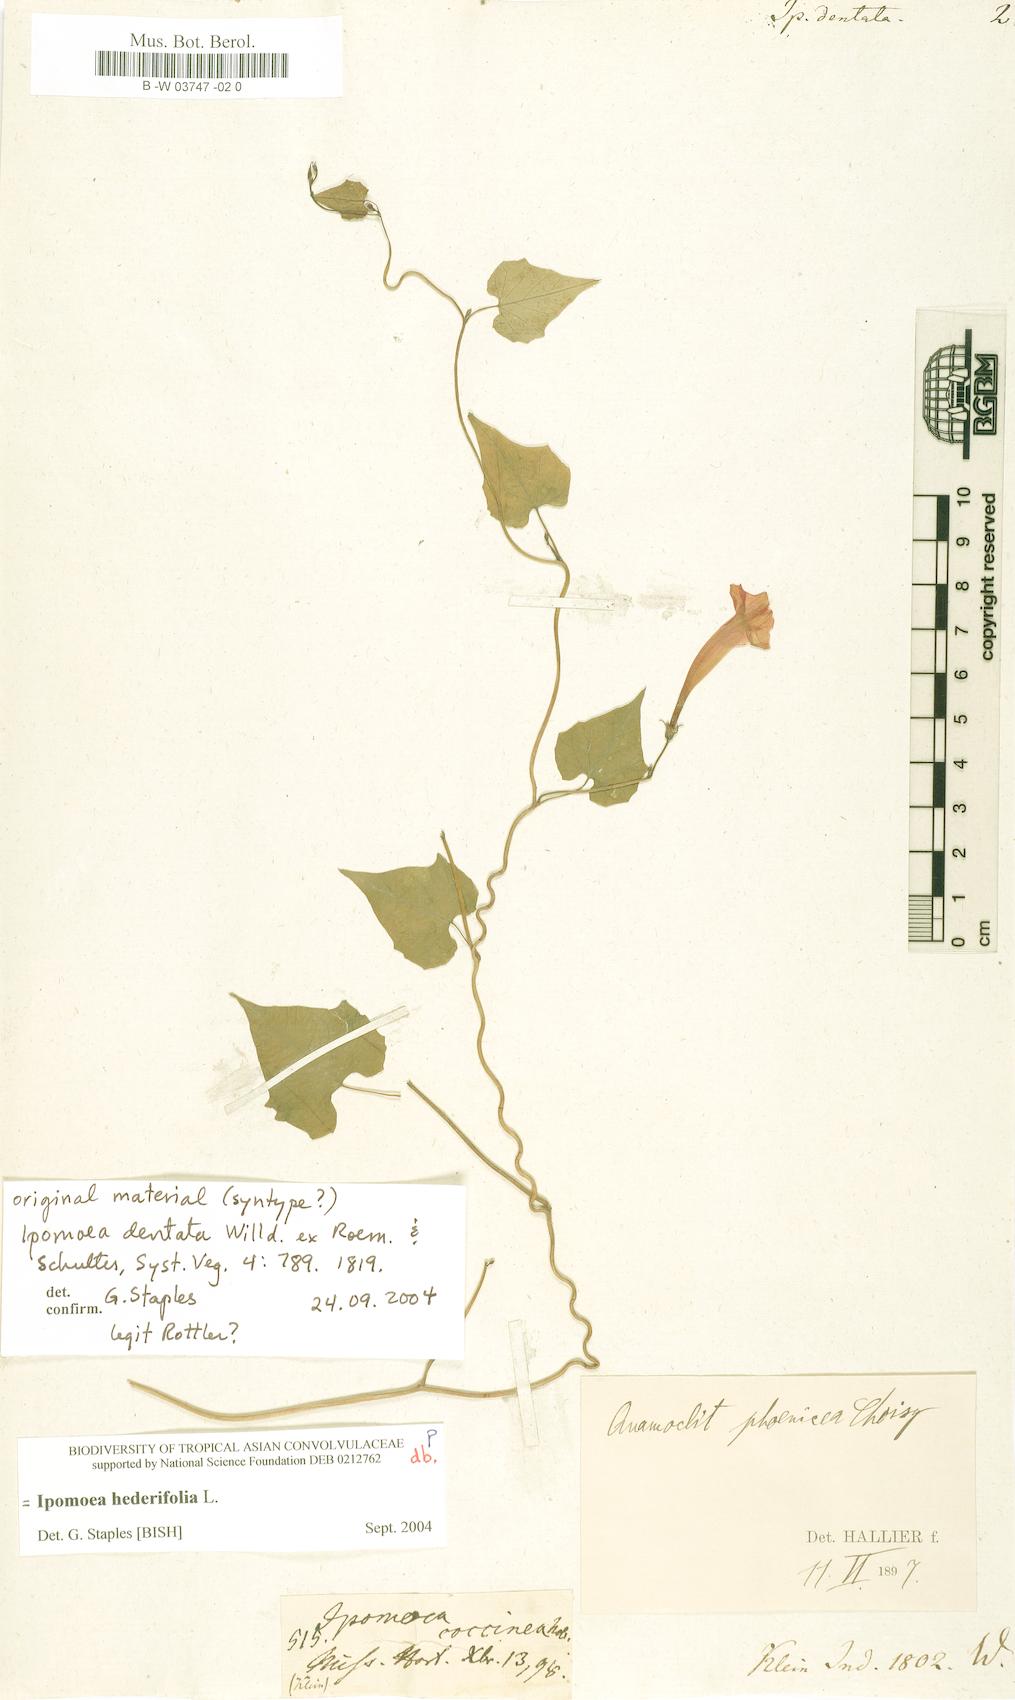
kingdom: Plantae
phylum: Tracheophyta
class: Magnoliopsida
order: Solanales
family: Convolvulaceae
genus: Merremia
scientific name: Merremia hederacea
